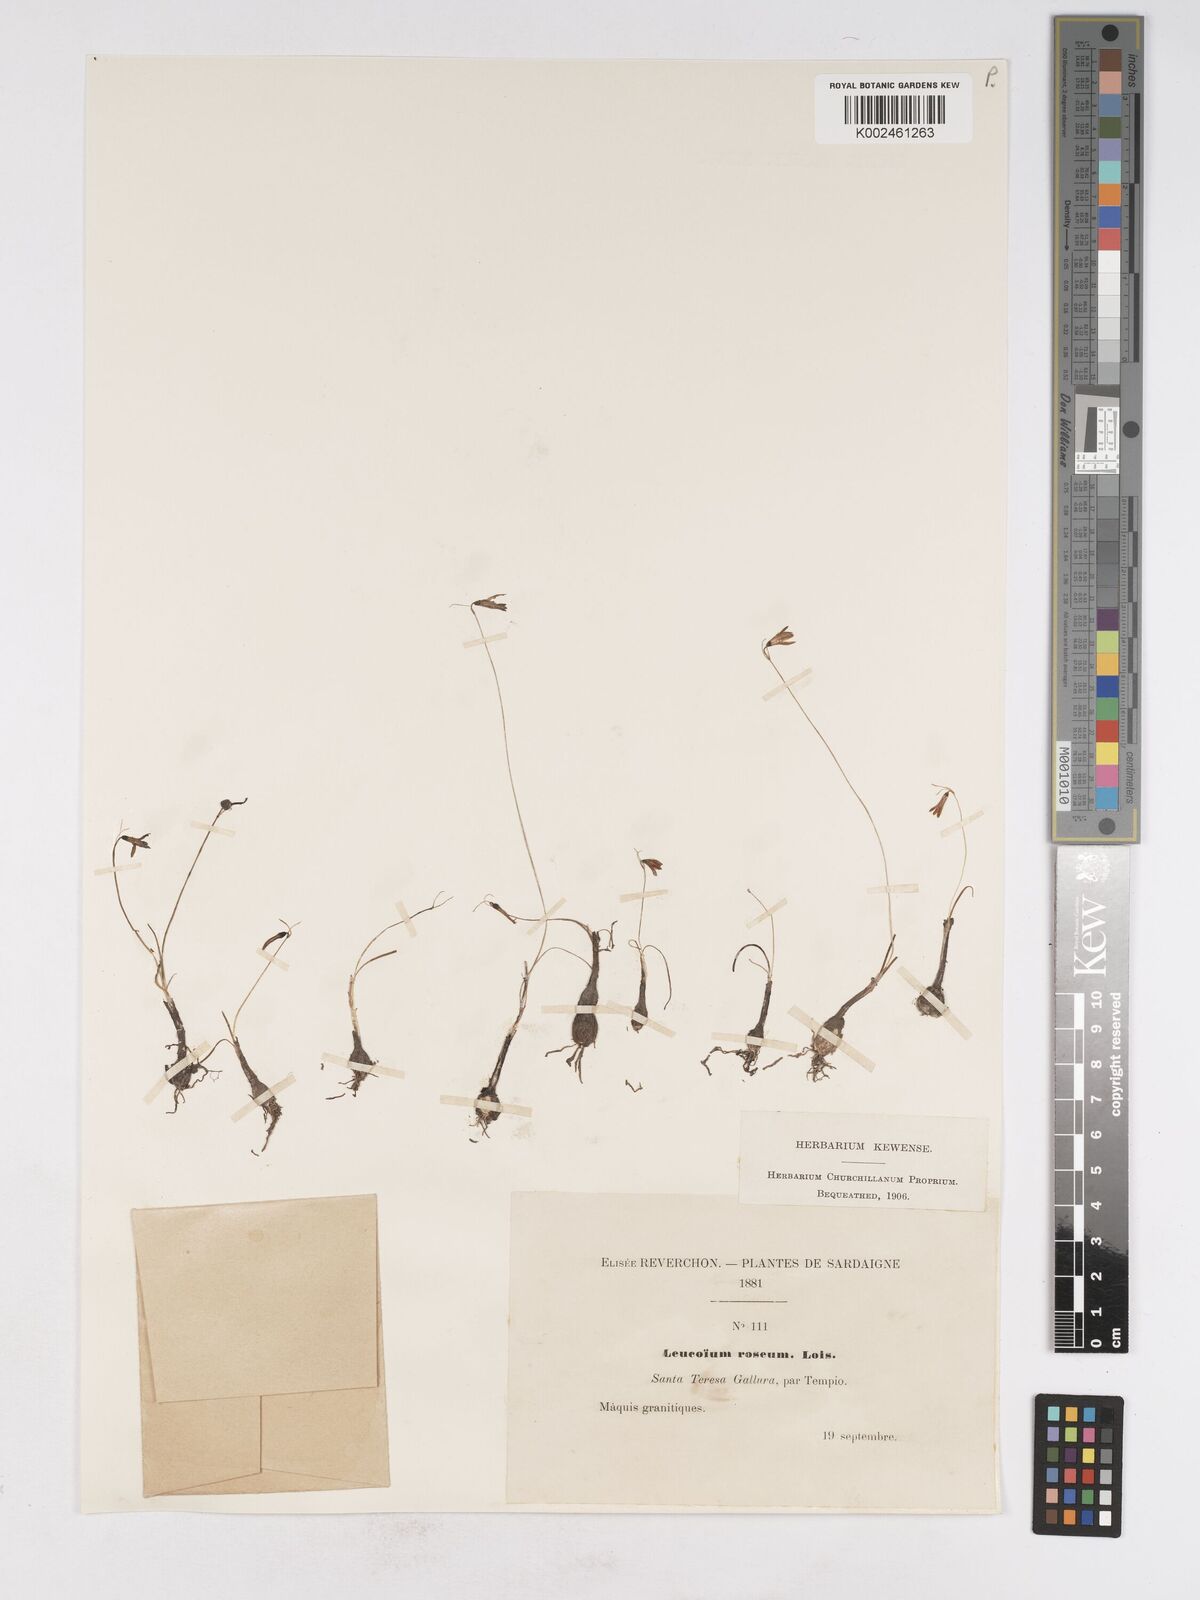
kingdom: Plantae
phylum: Tracheophyta
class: Liliopsida
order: Asparagales
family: Amaryllidaceae
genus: Acis
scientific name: Acis rosea
